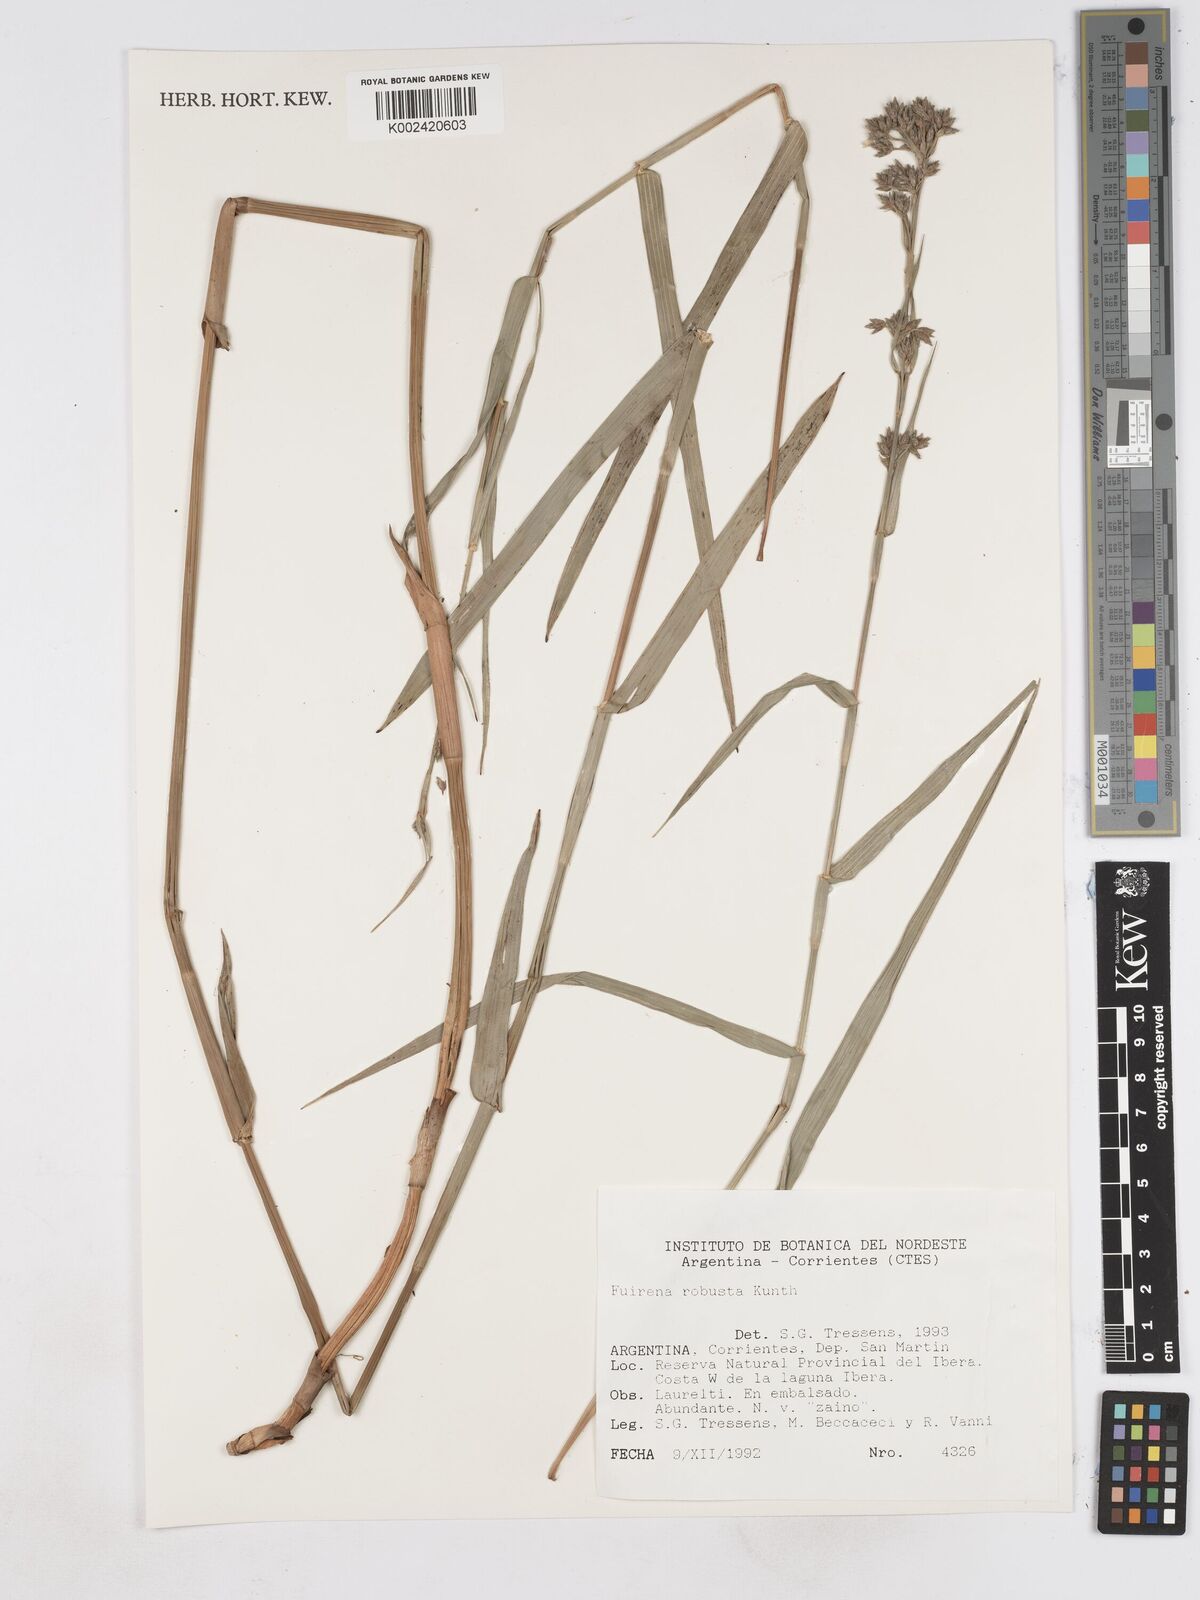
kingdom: Plantae
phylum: Tracheophyta
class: Liliopsida
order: Poales
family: Cyperaceae
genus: Fuirena
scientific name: Fuirena robusta
